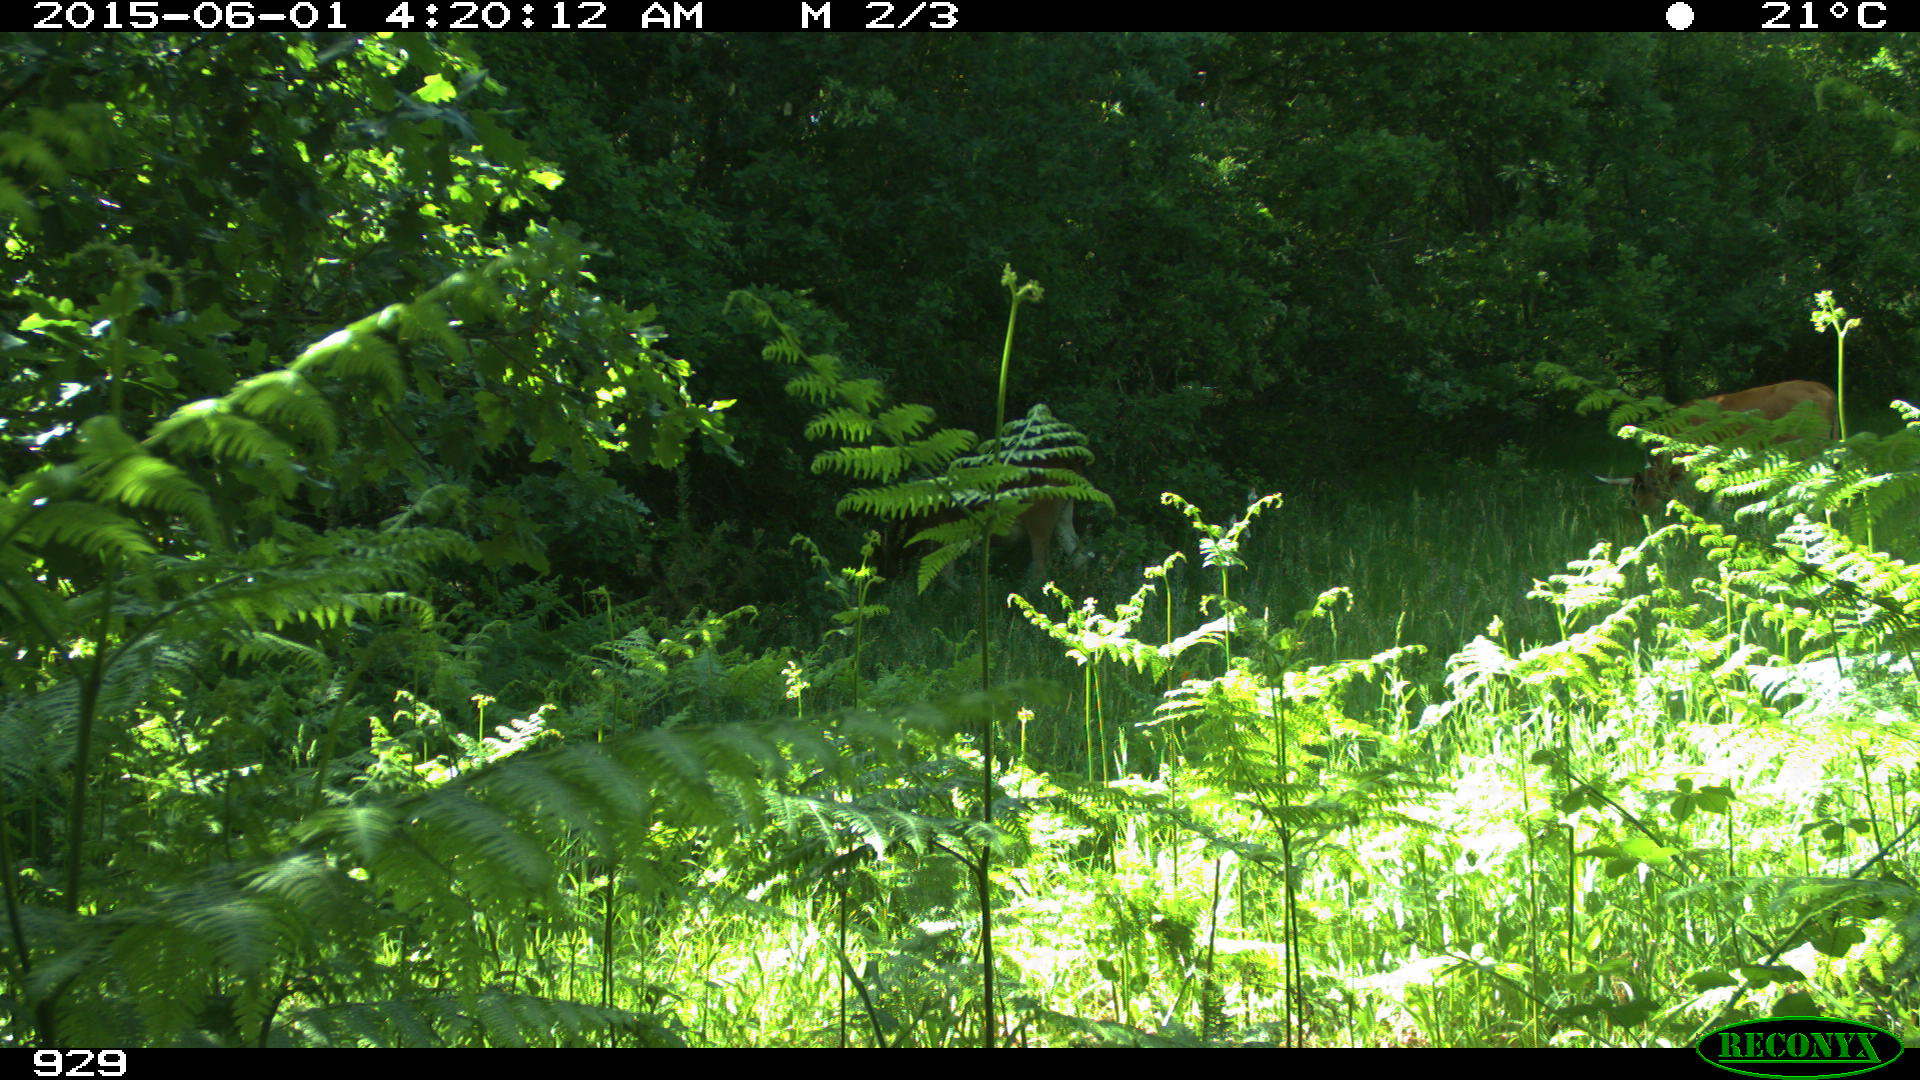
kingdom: Animalia
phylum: Chordata
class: Mammalia
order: Artiodactyla
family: Bovidae
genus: Bos
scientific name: Bos taurus
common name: Domesticated cattle
